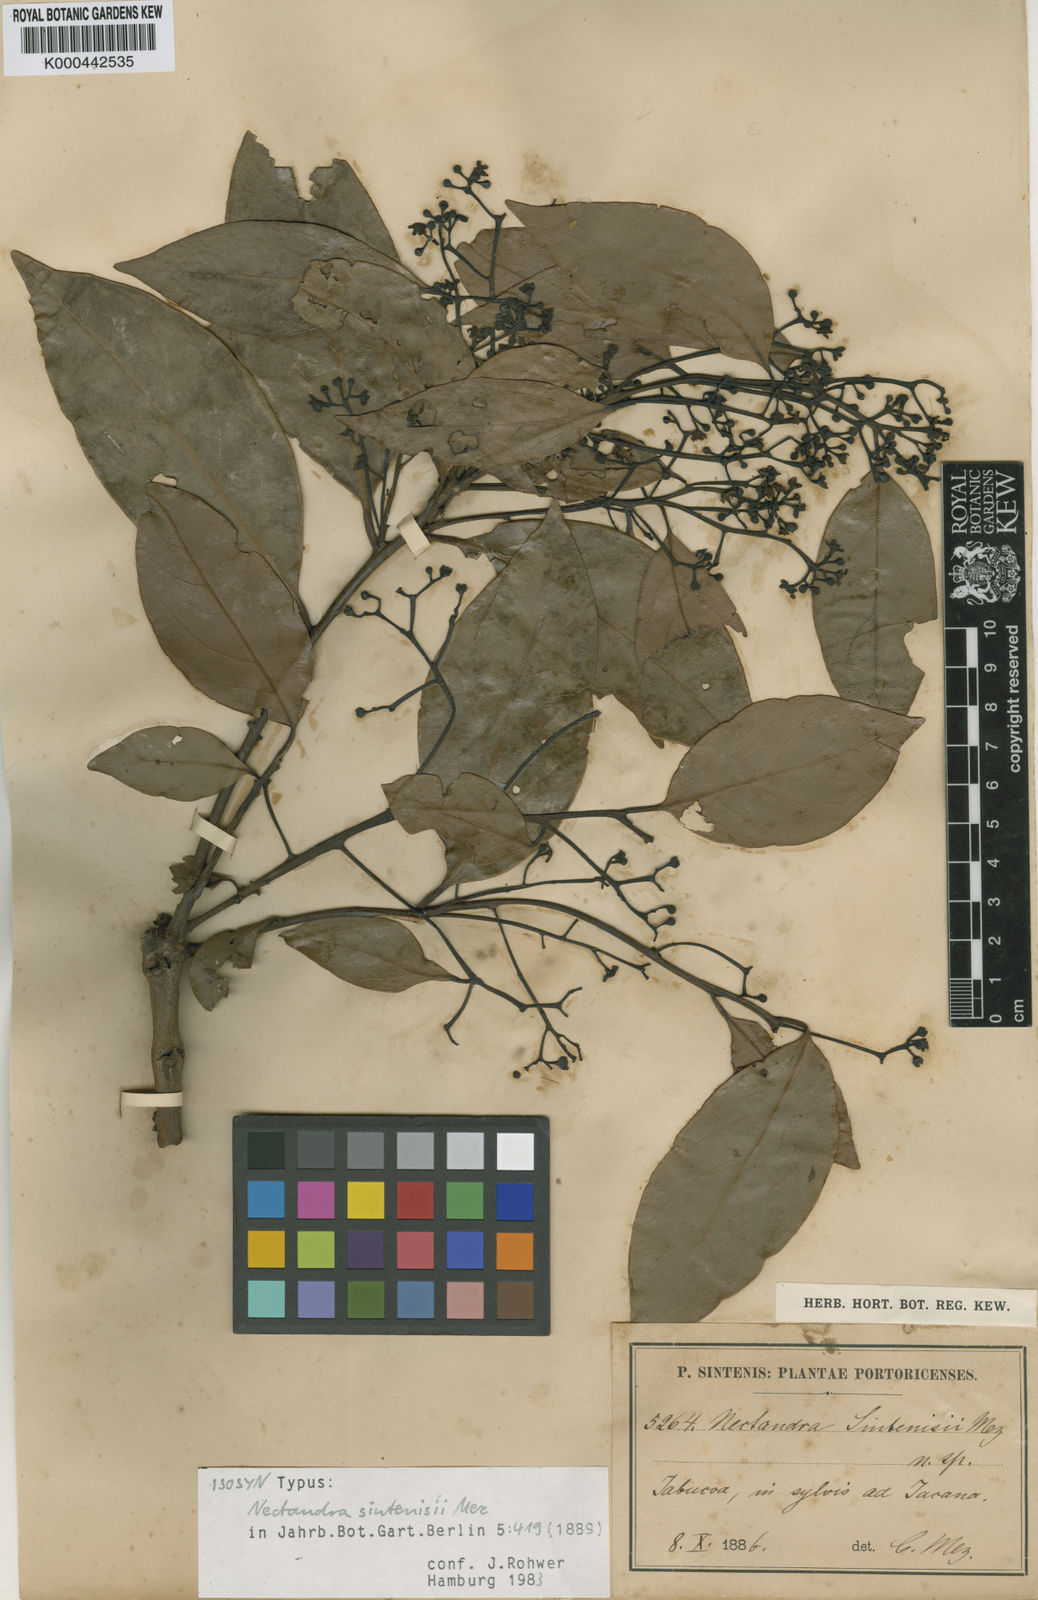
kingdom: Plantae
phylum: Tracheophyta
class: Magnoliopsida
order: Laurales
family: Lauraceae
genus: Nectandra
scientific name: Nectandra turbacensis
